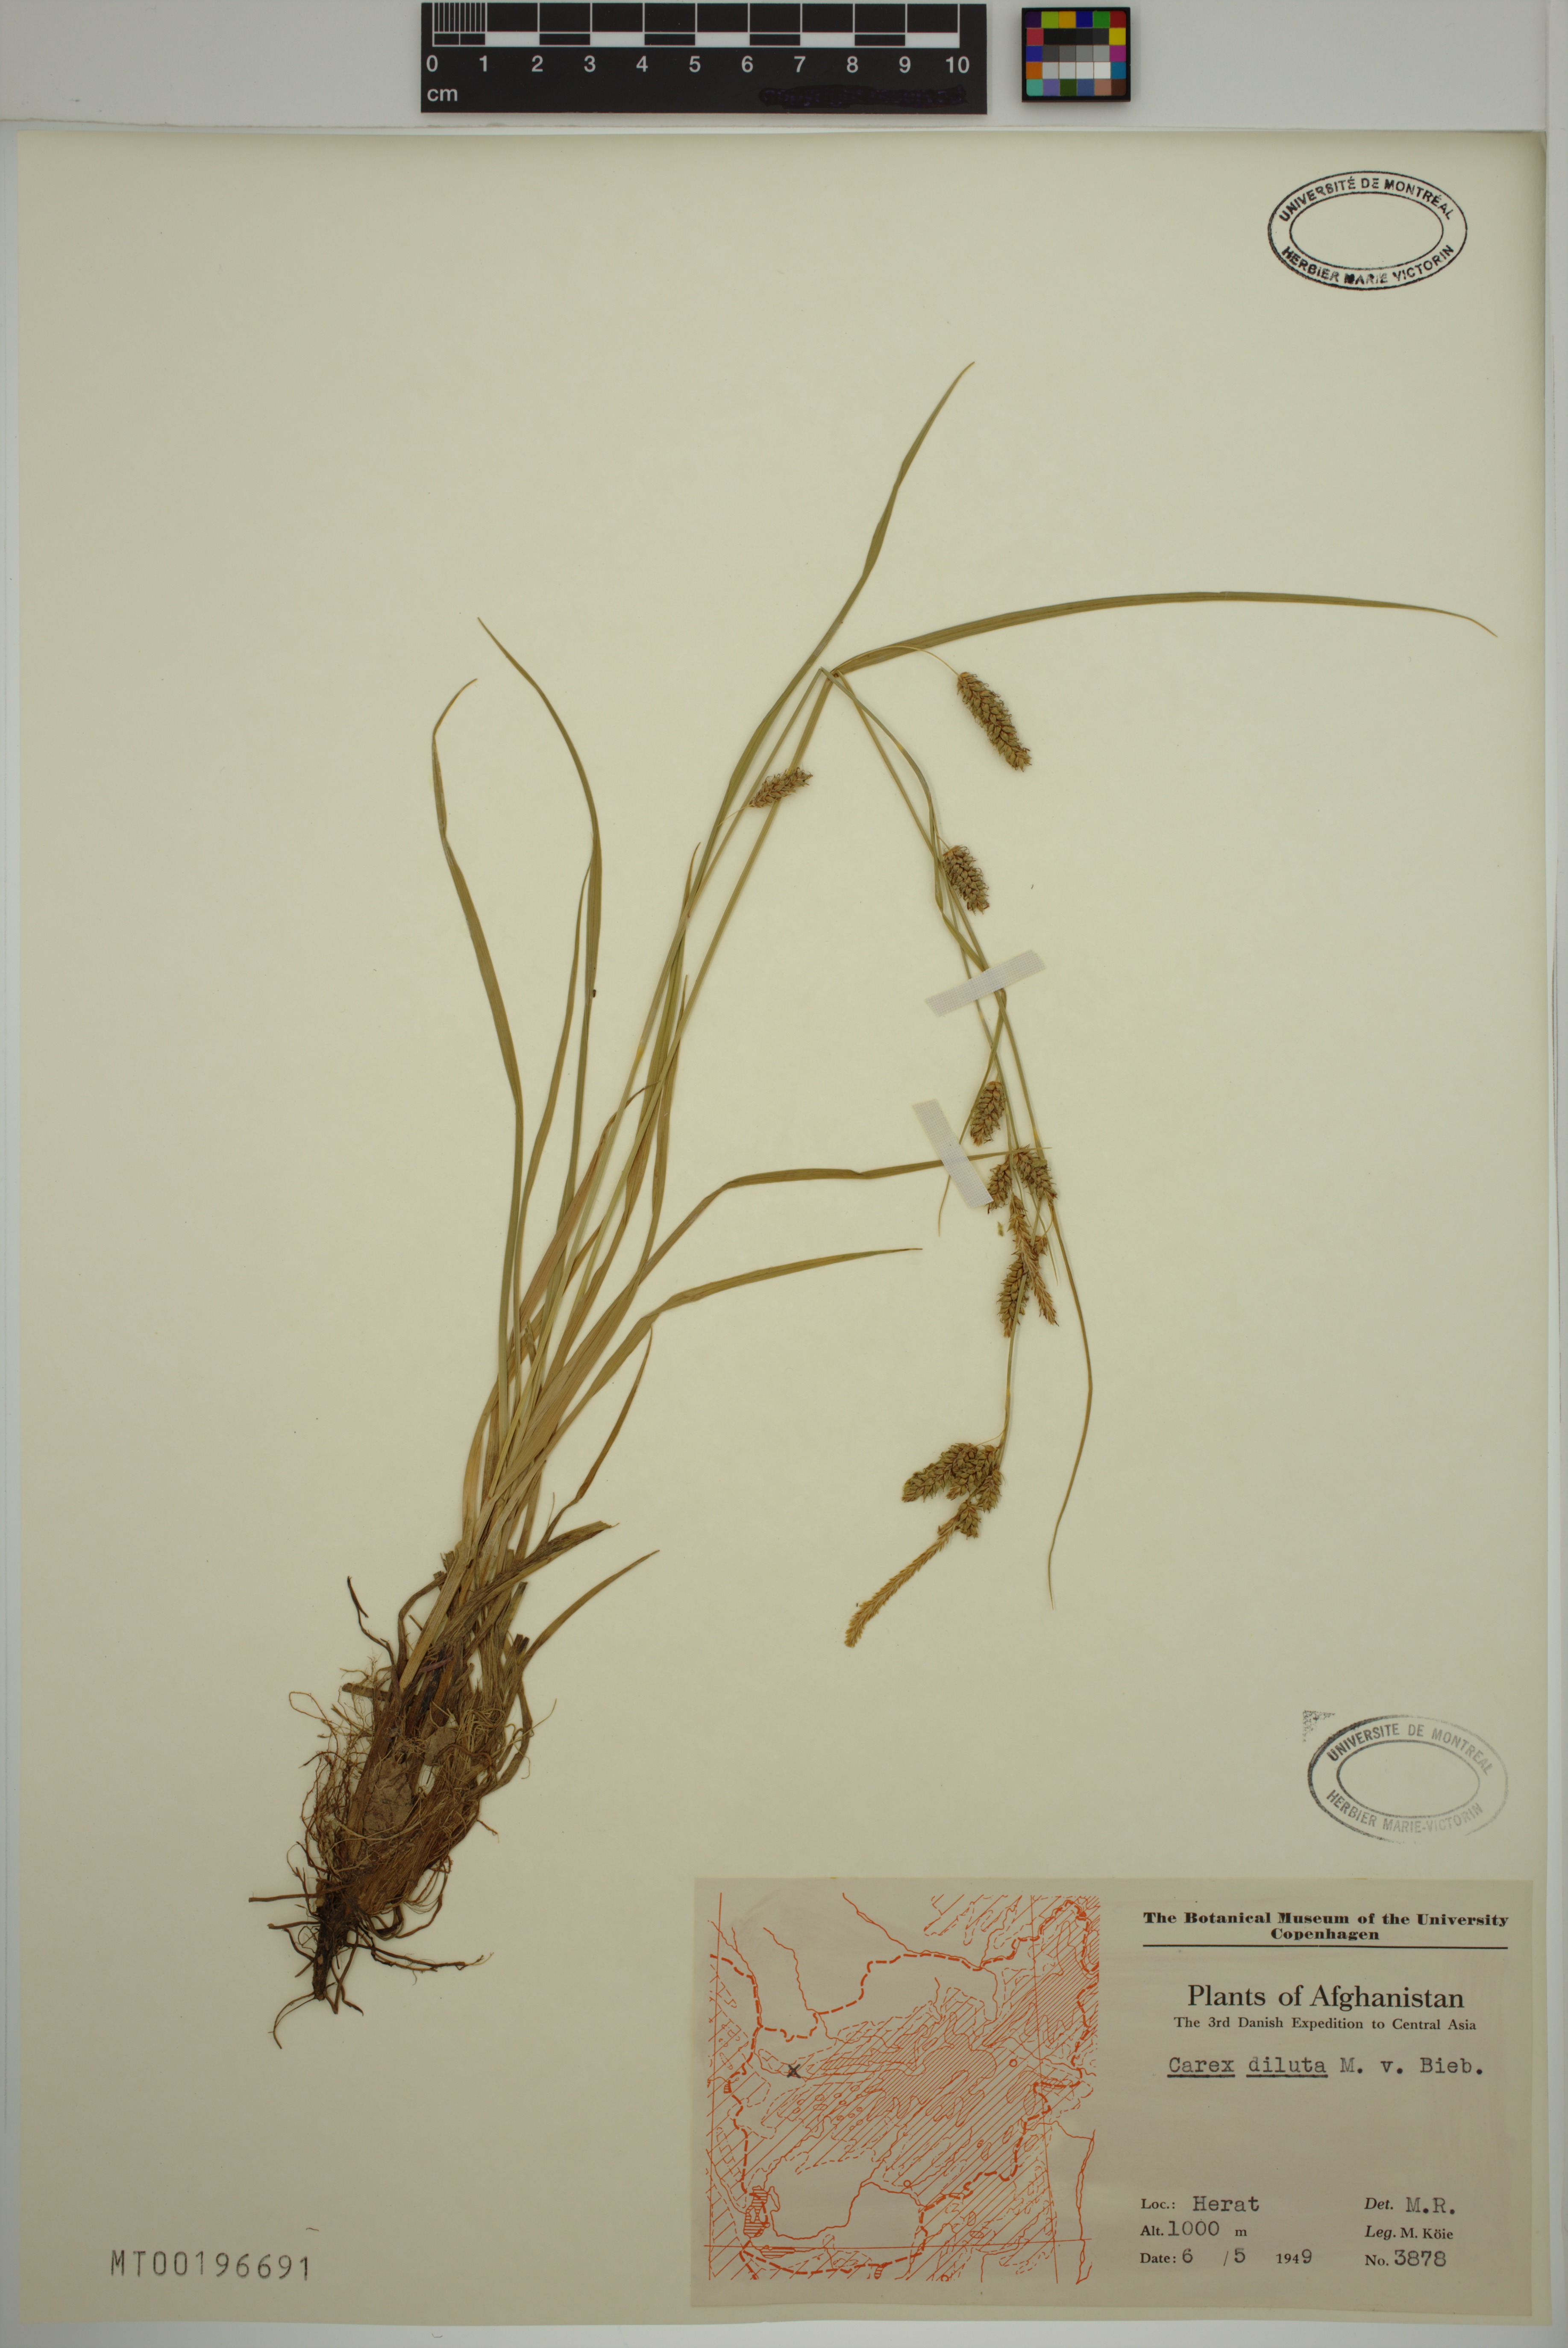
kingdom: Plantae
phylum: Tracheophyta
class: Liliopsida
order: Poales
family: Cyperaceae
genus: Carex
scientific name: Carex diluta
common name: Sedge
